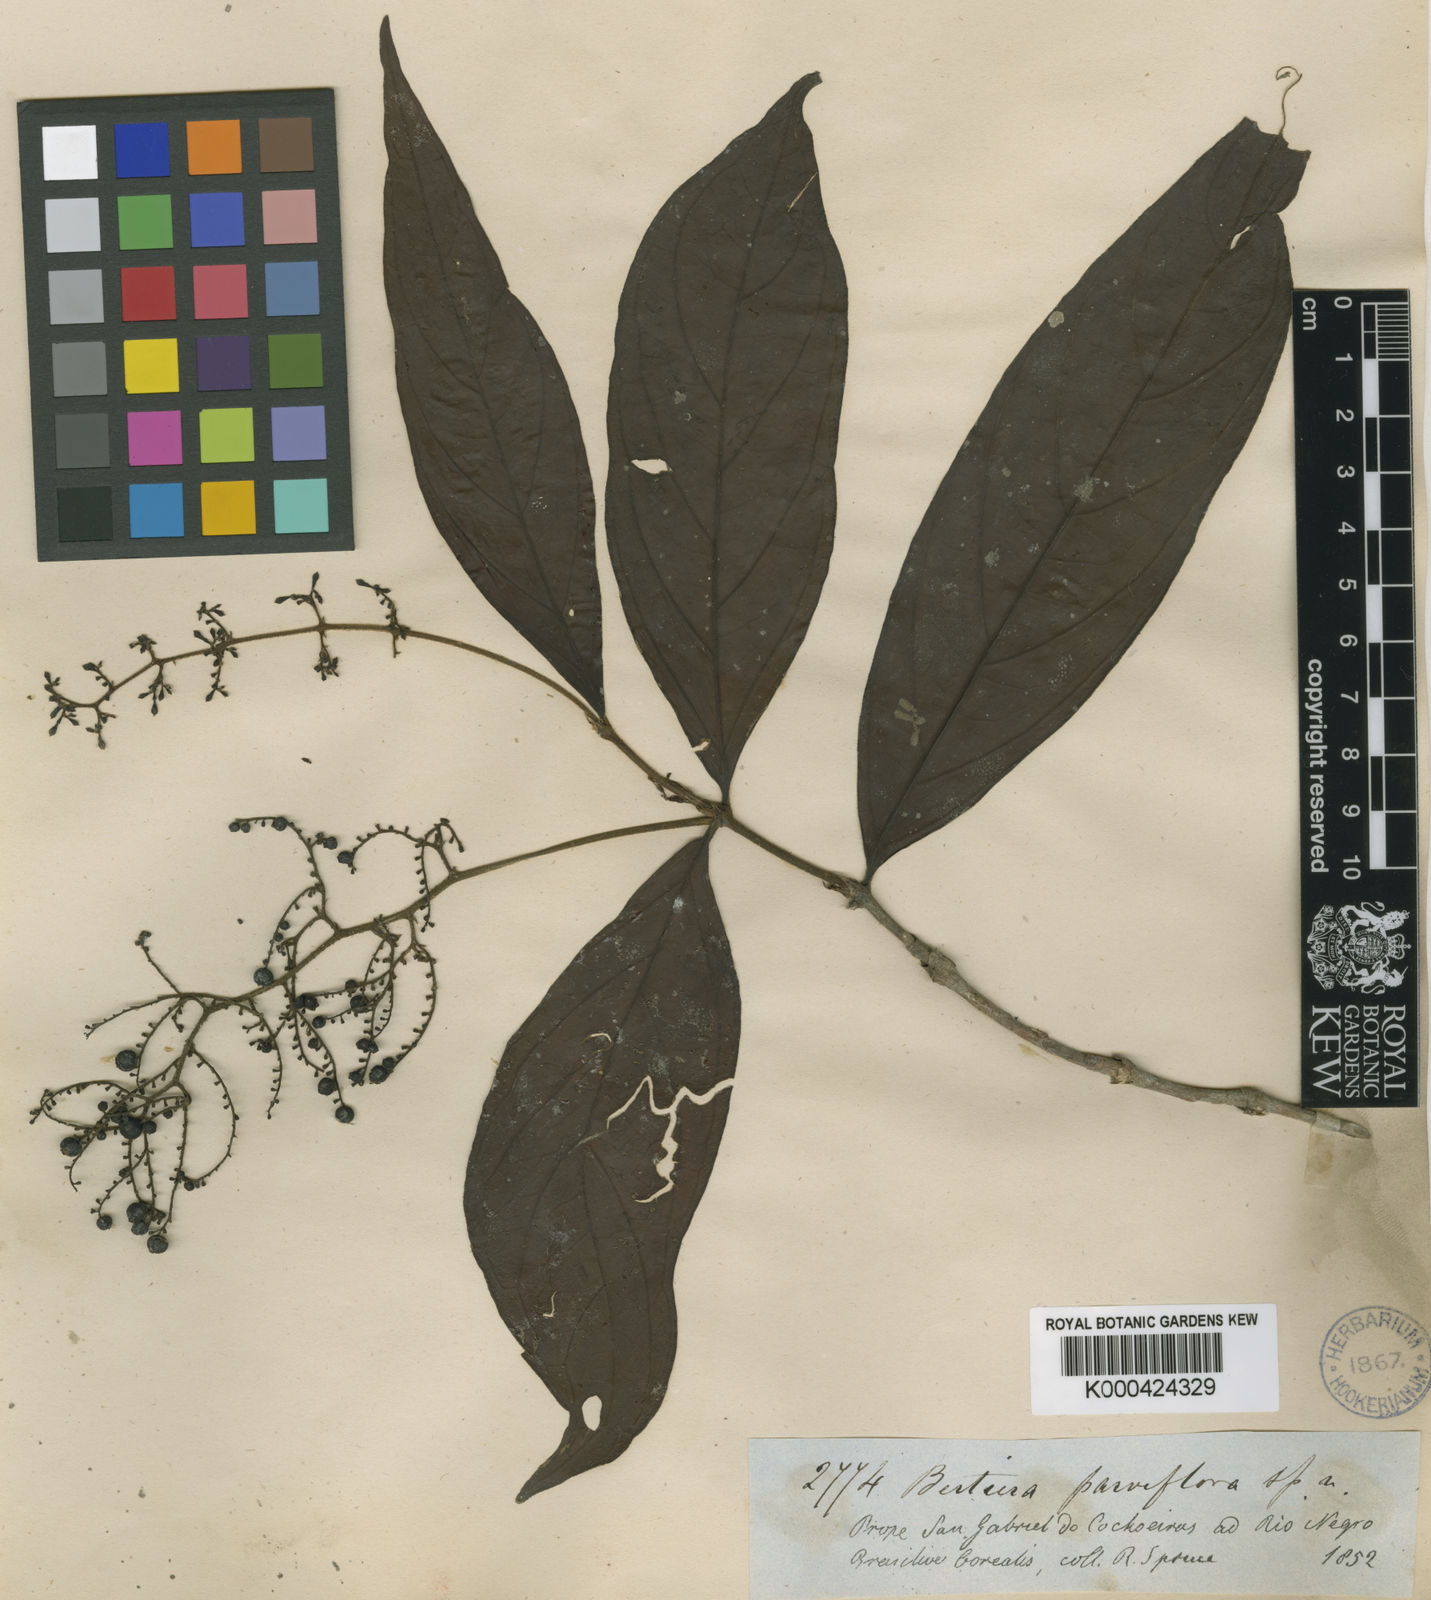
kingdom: Plantae
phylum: Tracheophyta
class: Magnoliopsida
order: Gentianales
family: Rubiaceae
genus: Bertiera
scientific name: Bertiera parviflora
